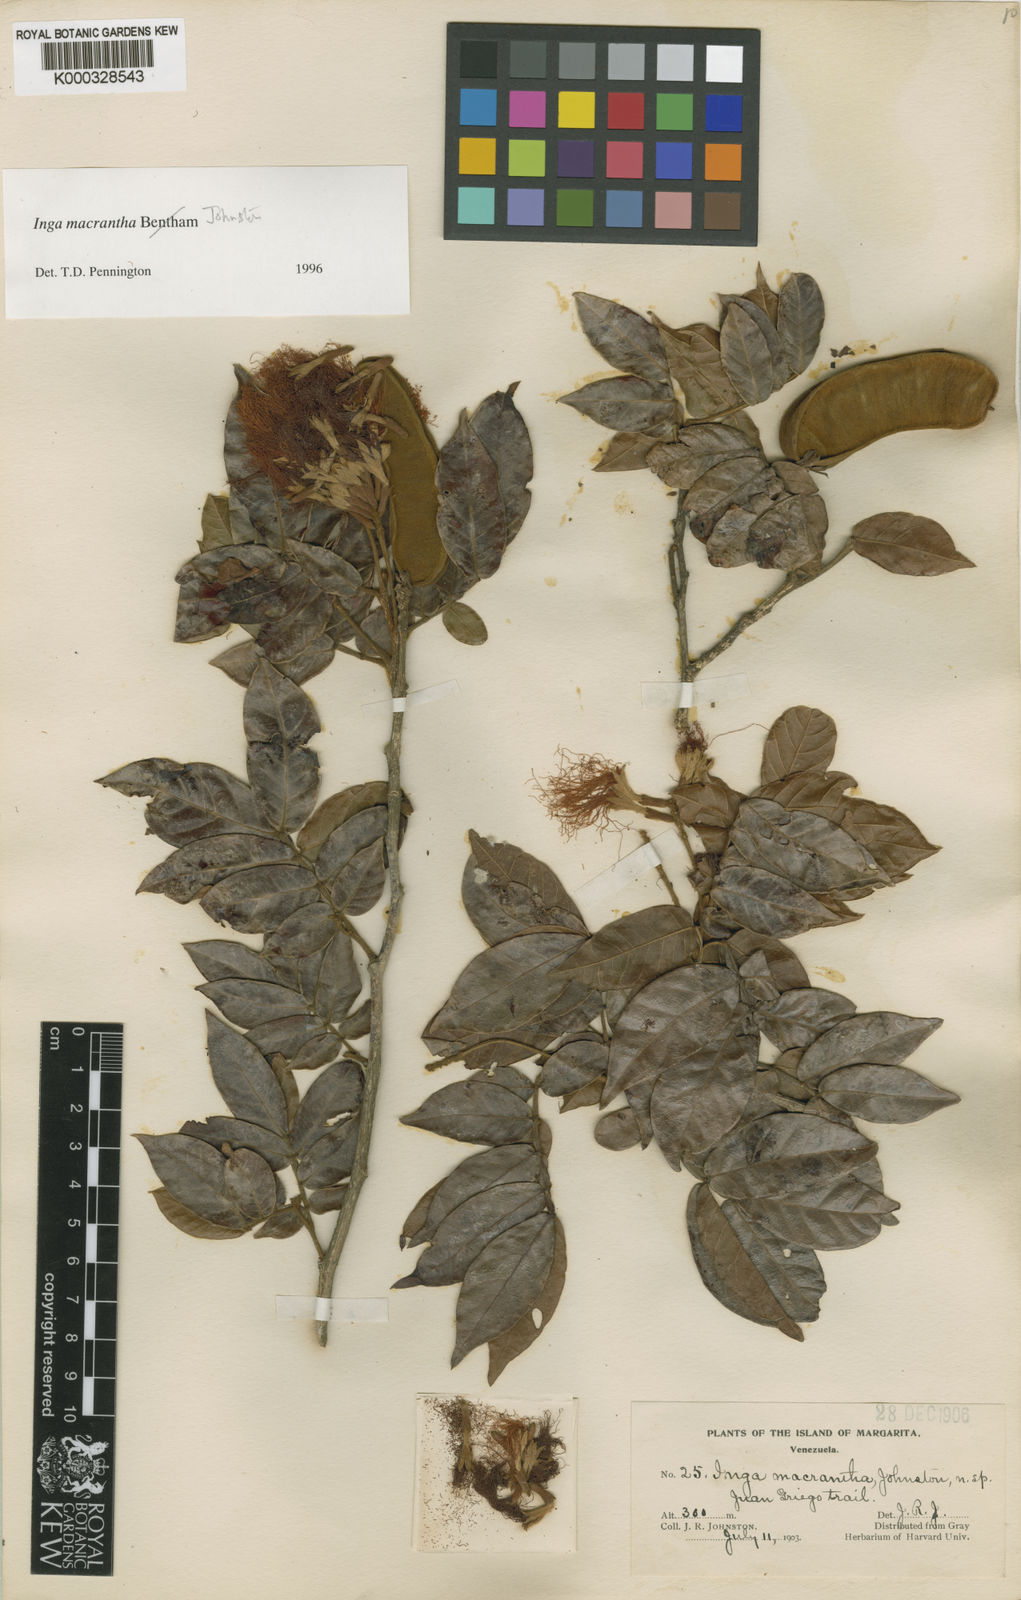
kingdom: Plantae
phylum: Tracheophyta
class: Magnoliopsida
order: Fabales
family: Fabaceae
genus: Inga
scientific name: Inga macrantha
